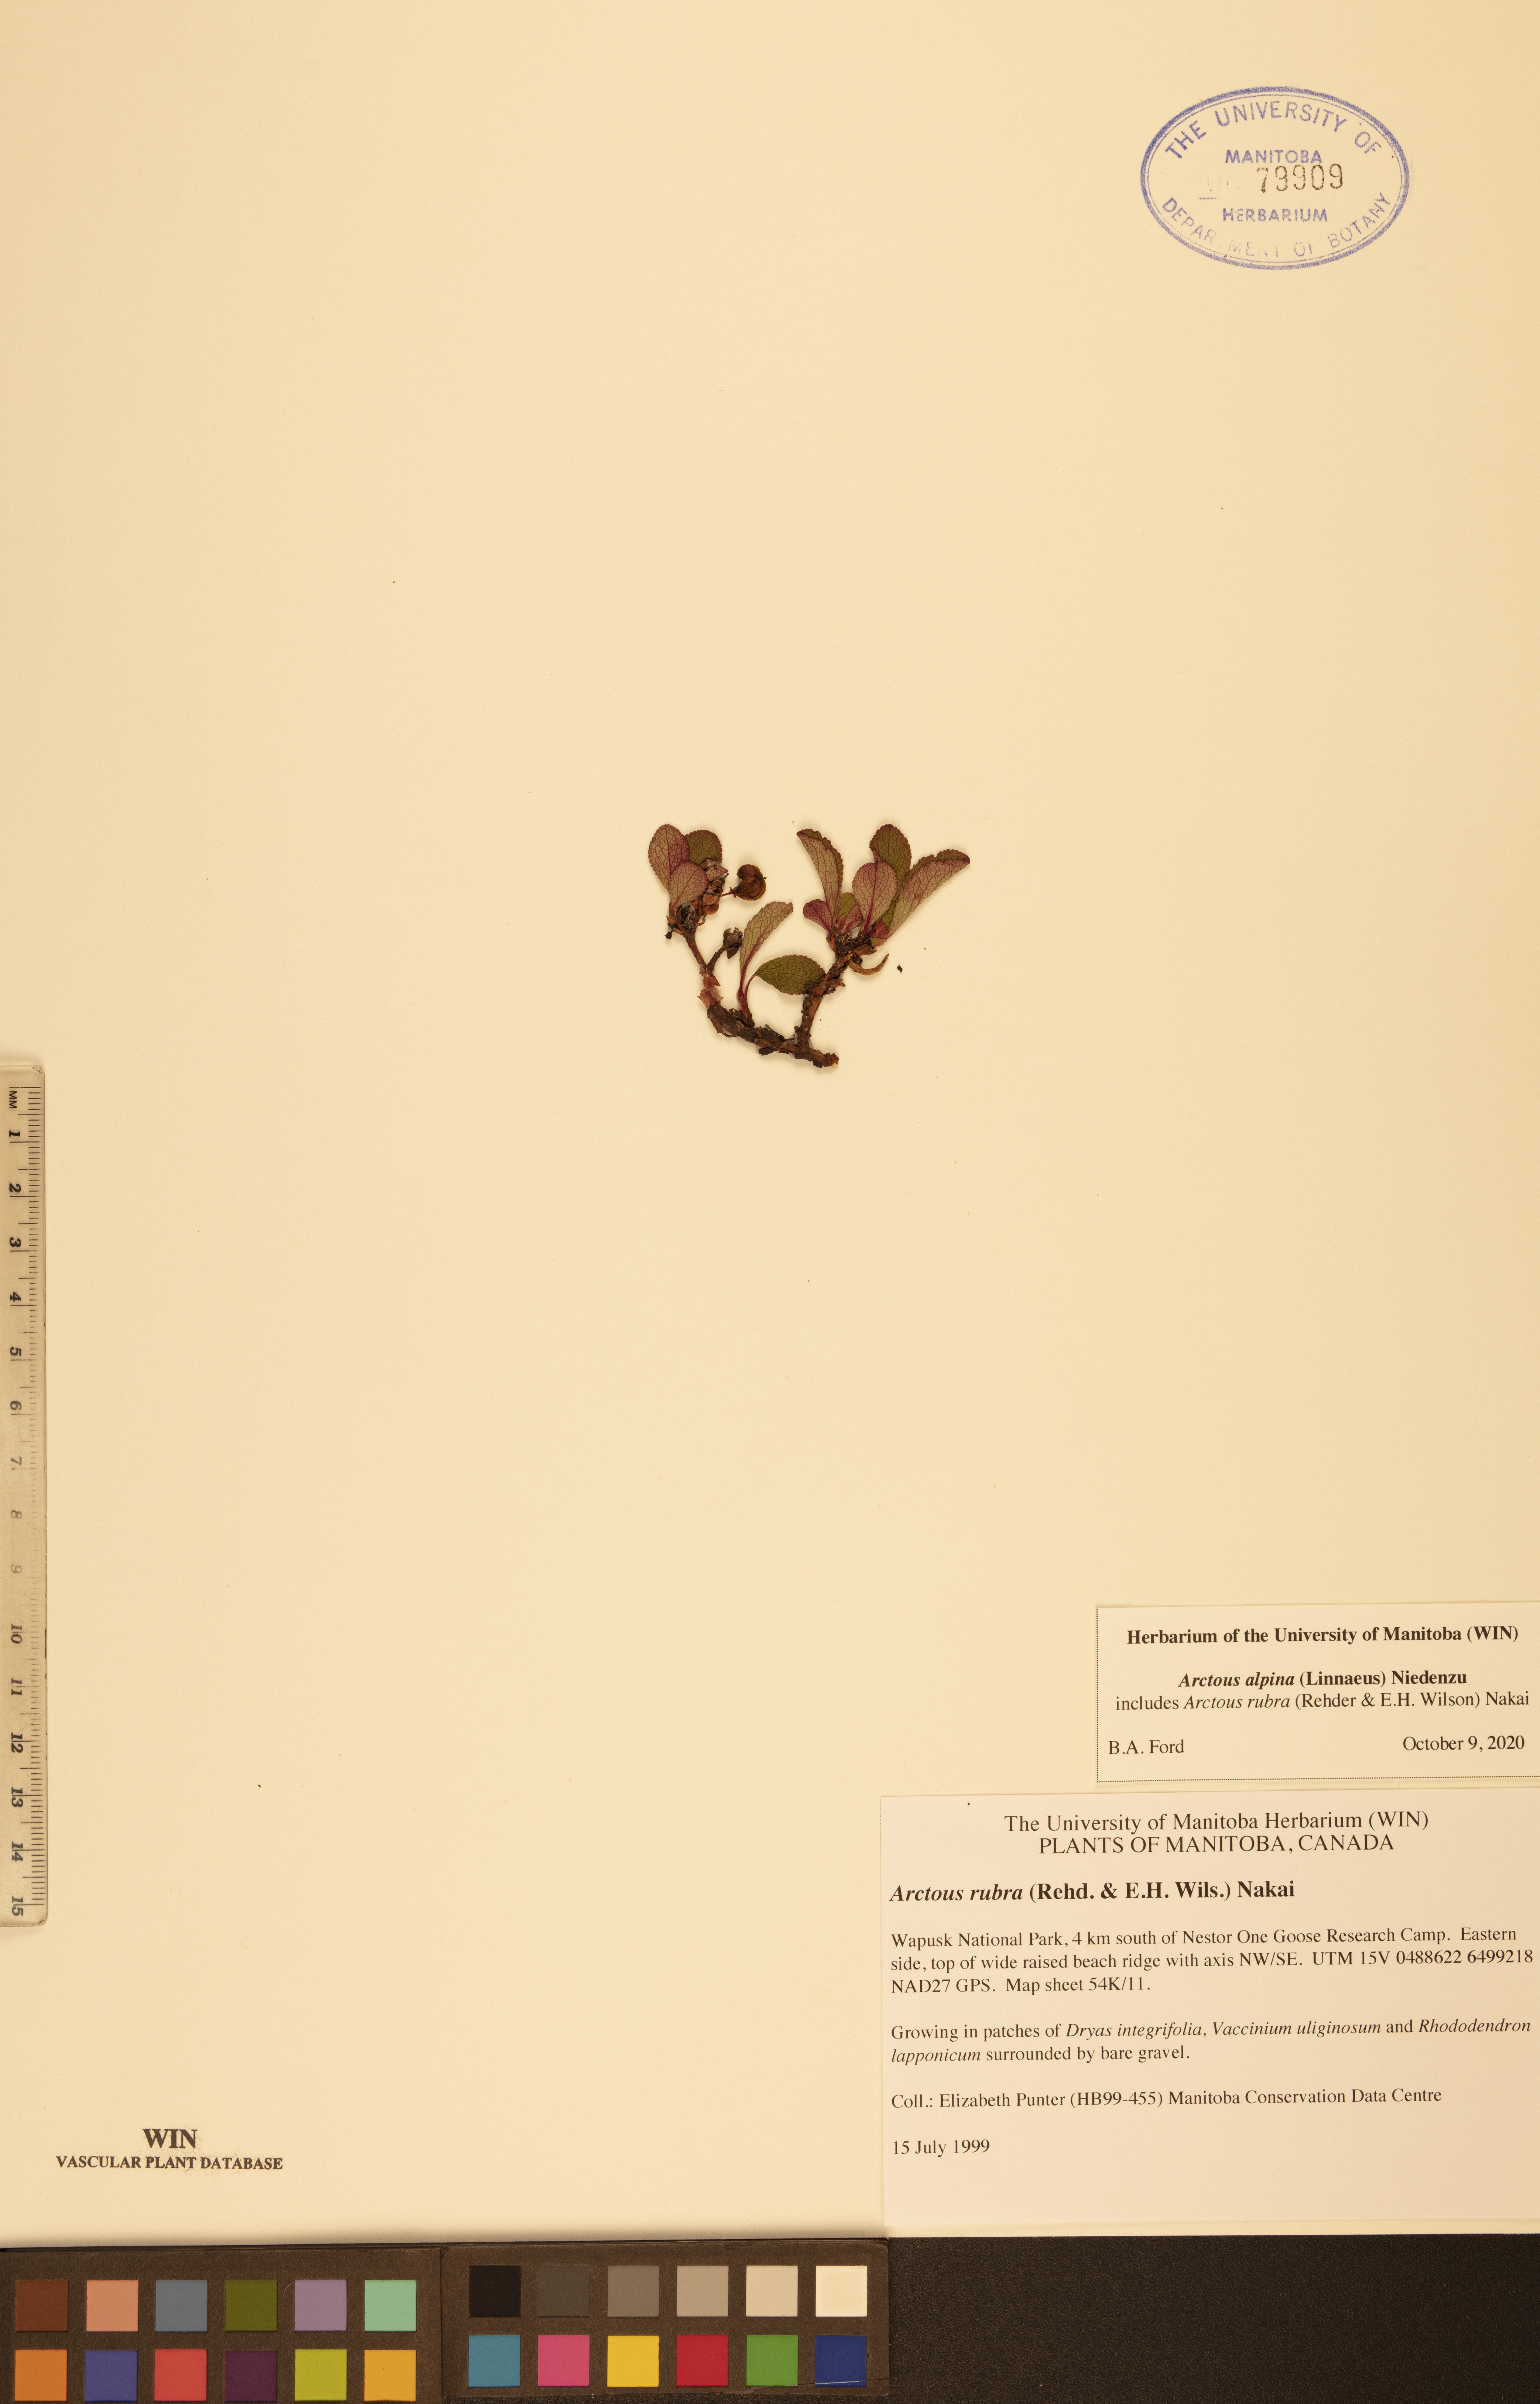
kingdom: Plantae
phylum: Tracheophyta
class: Magnoliopsida
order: Ericales
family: Ericaceae
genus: Arctostaphylos
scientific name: Arctostaphylos alpinus
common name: Alpine bearberry
